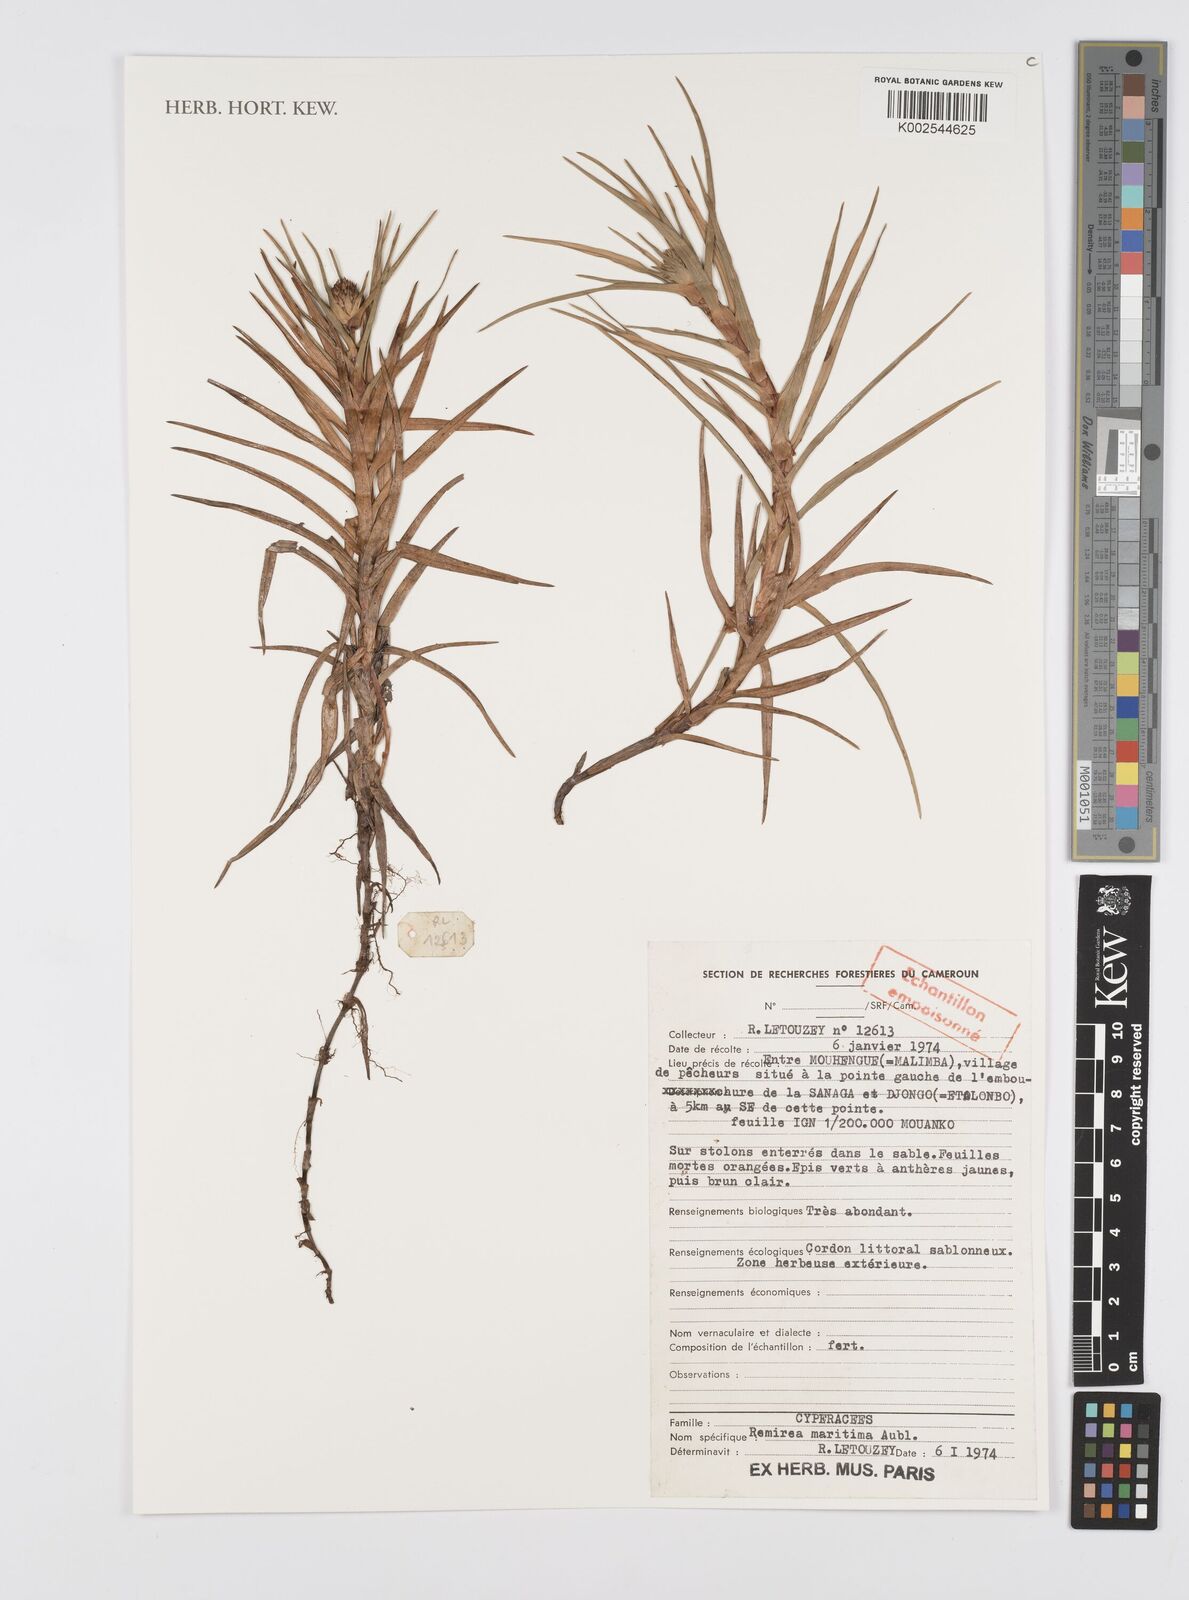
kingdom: Plantae
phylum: Tracheophyta
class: Liliopsida
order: Poales
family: Cyperaceae
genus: Cyperus
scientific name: Cyperus
